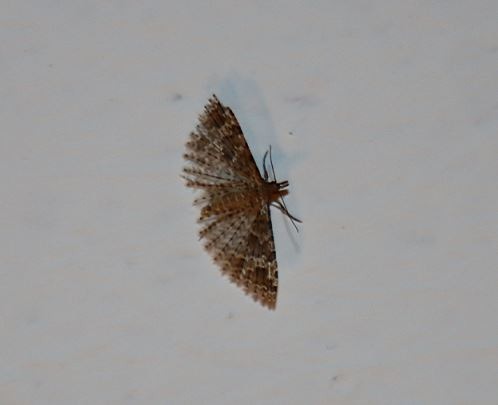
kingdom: Animalia
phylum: Arthropoda
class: Insecta
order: Lepidoptera
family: Alucitidae
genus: Alucita
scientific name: Alucita hexadactyla
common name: Kaprifoliefjermøl
